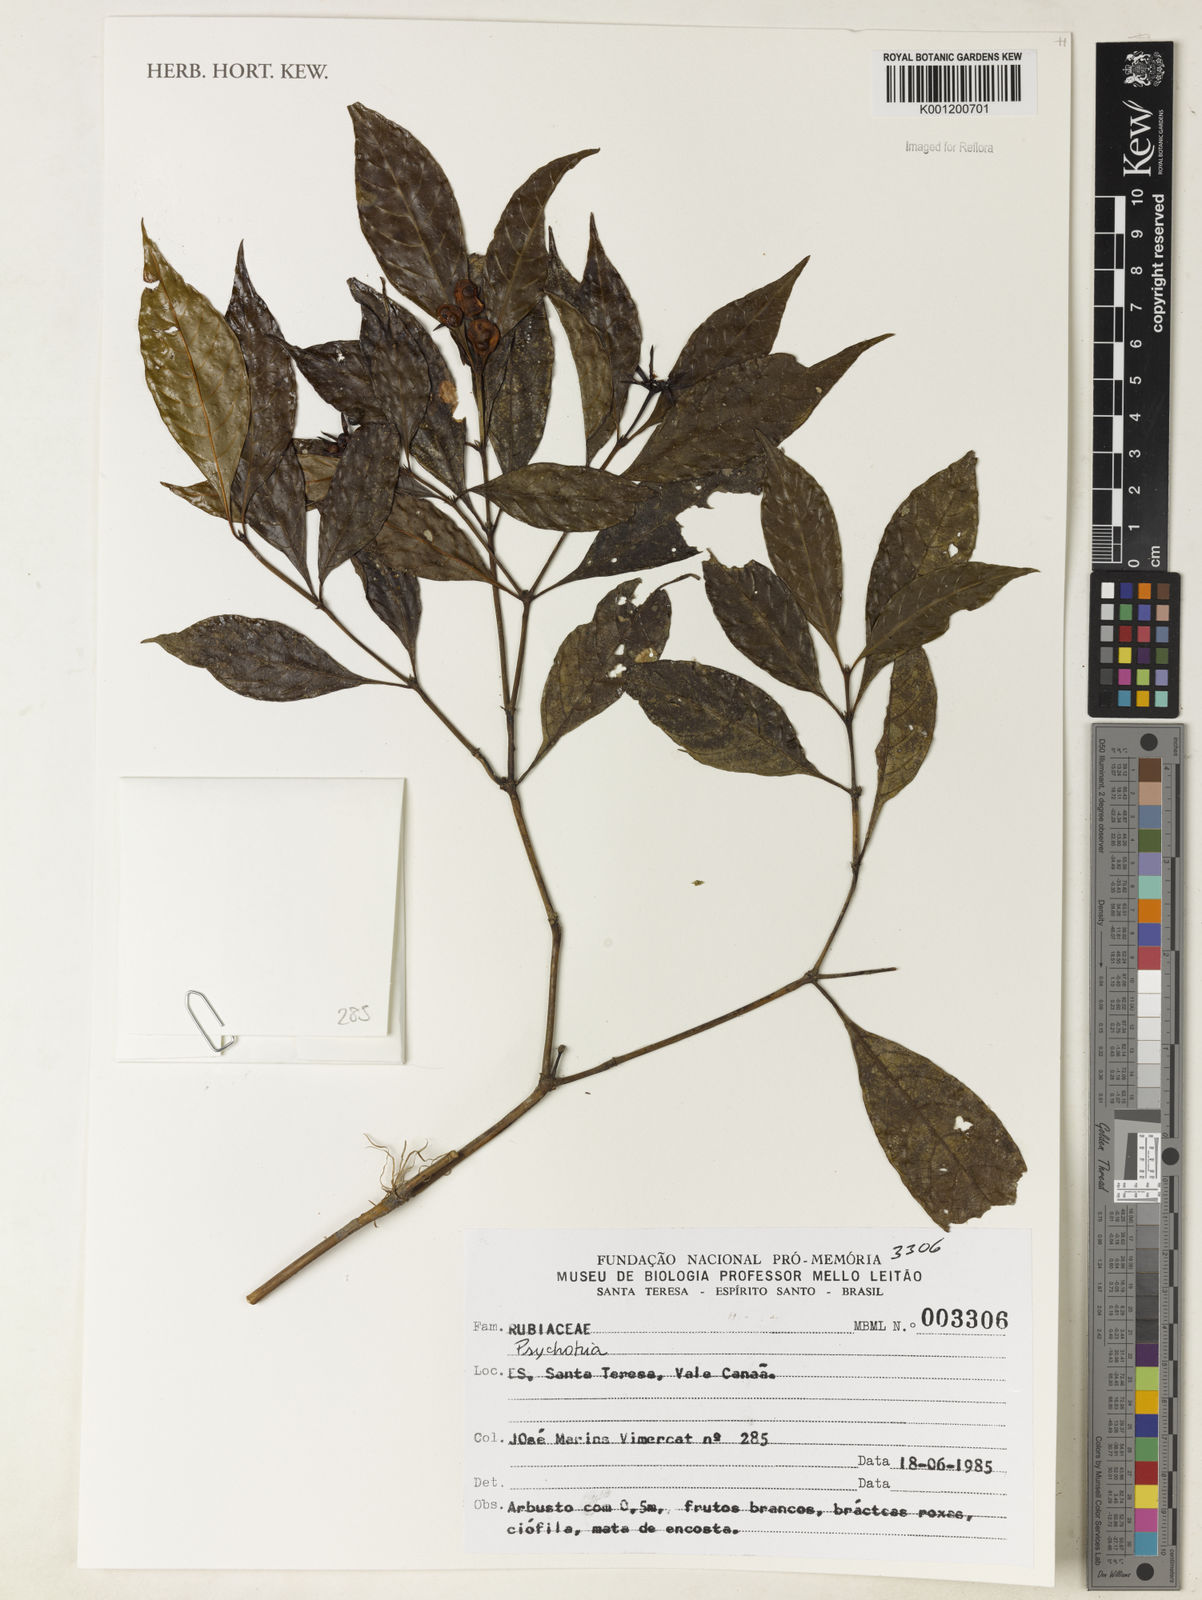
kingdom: Plantae
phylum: Tracheophyta
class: Magnoliopsida
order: Gentianales
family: Rubiaceae
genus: Psychotria
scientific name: Psychotria
